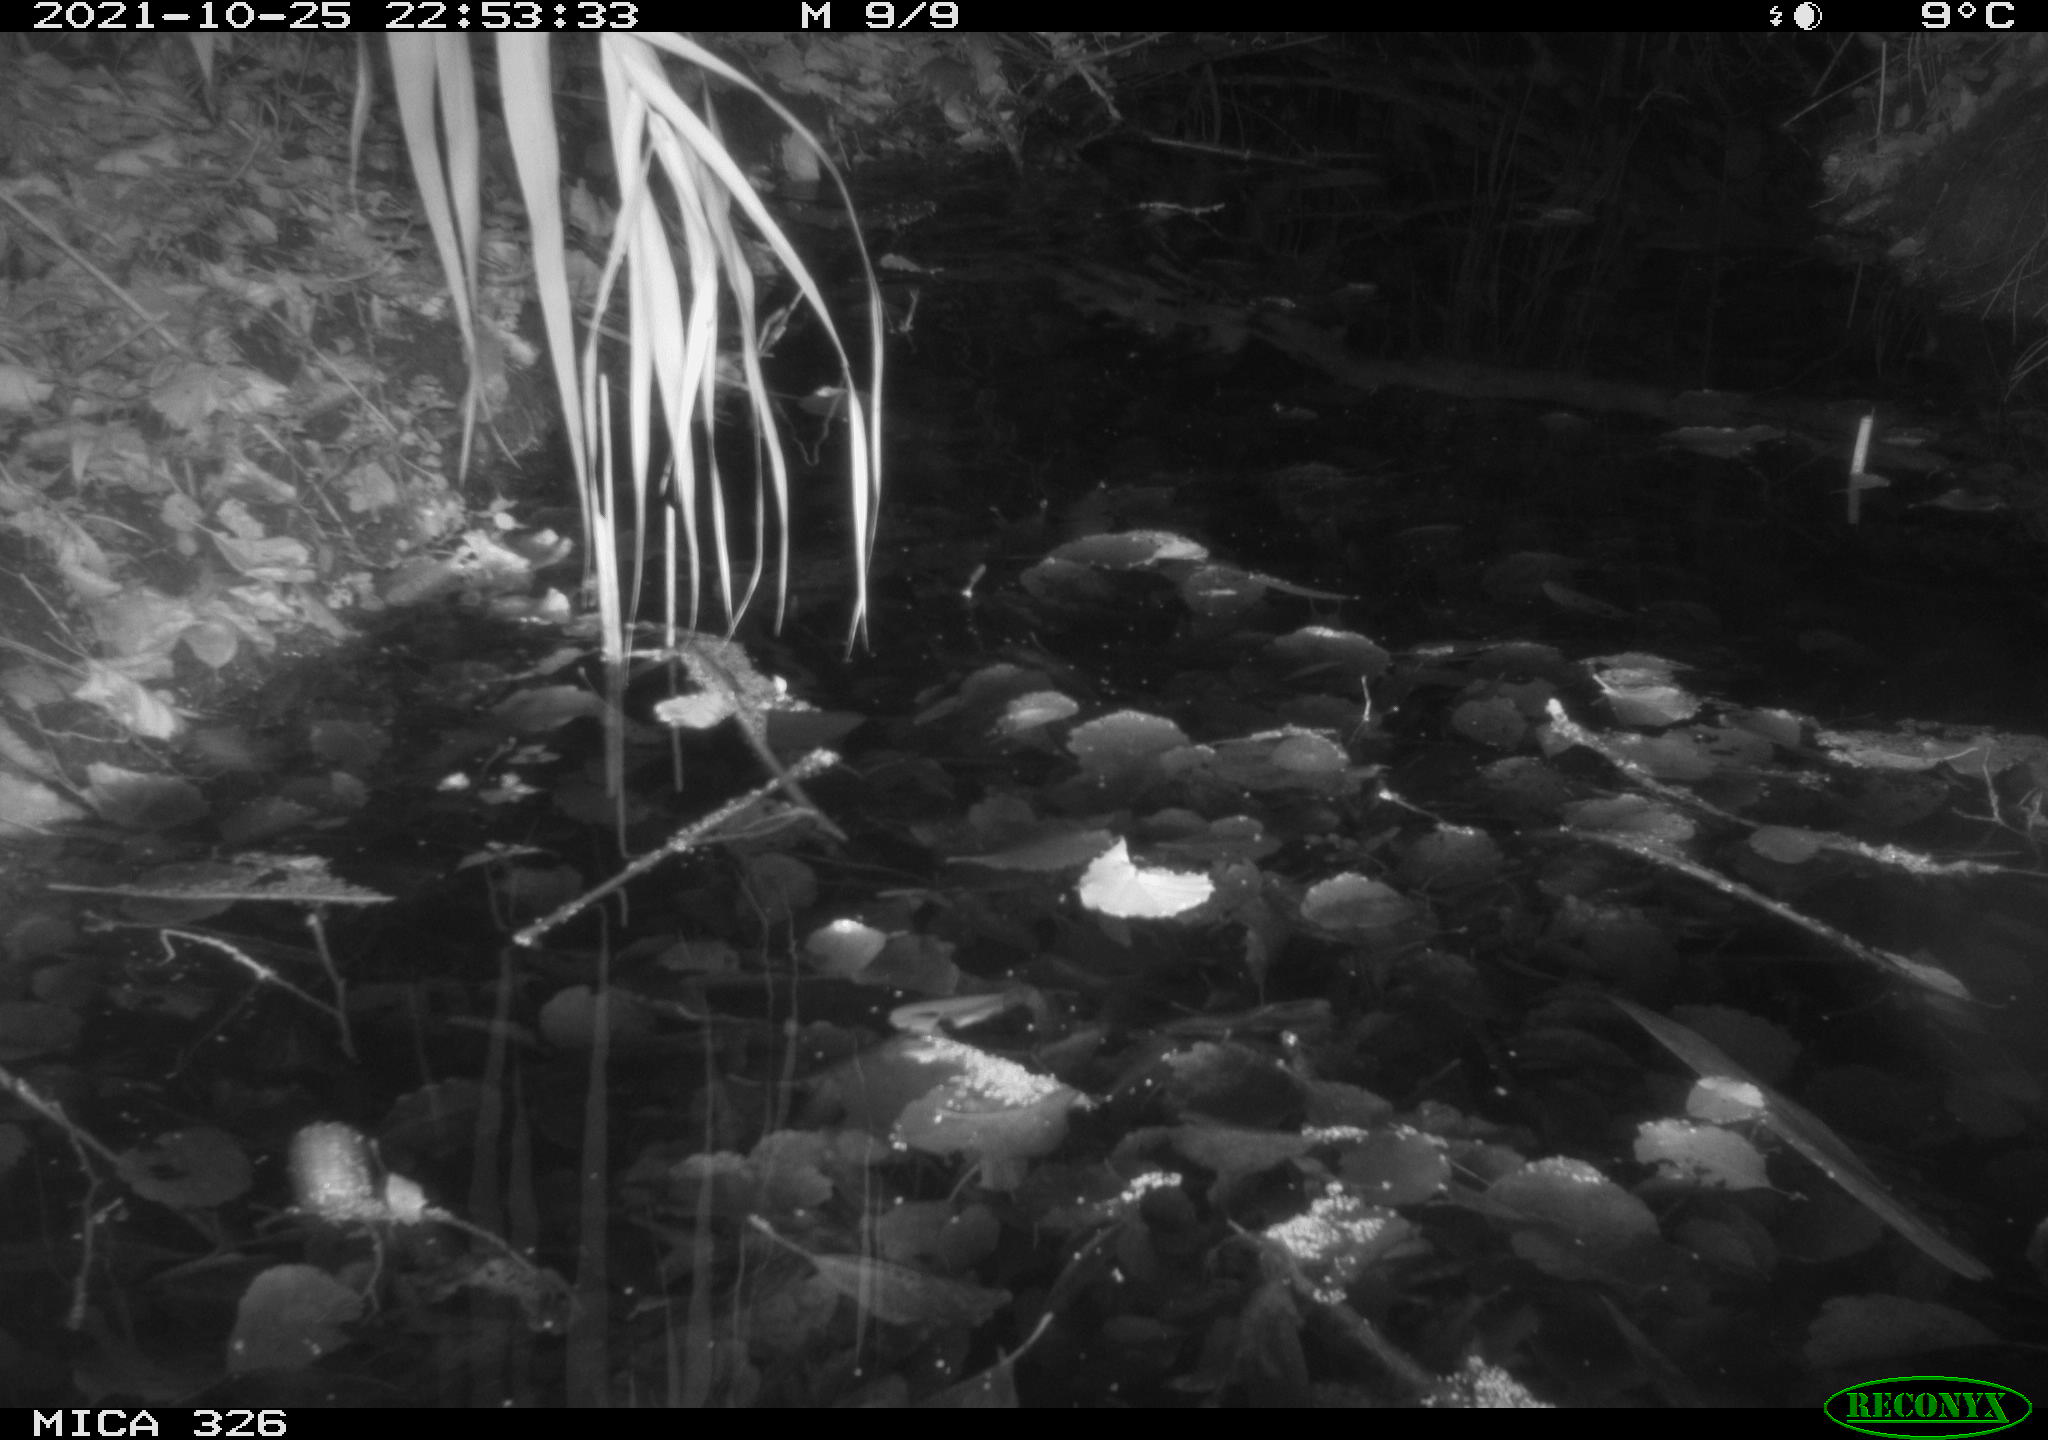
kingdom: Animalia
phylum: Chordata
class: Mammalia
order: Rodentia
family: Muridae
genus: Rattus
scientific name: Rattus norvegicus
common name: Brown rat
